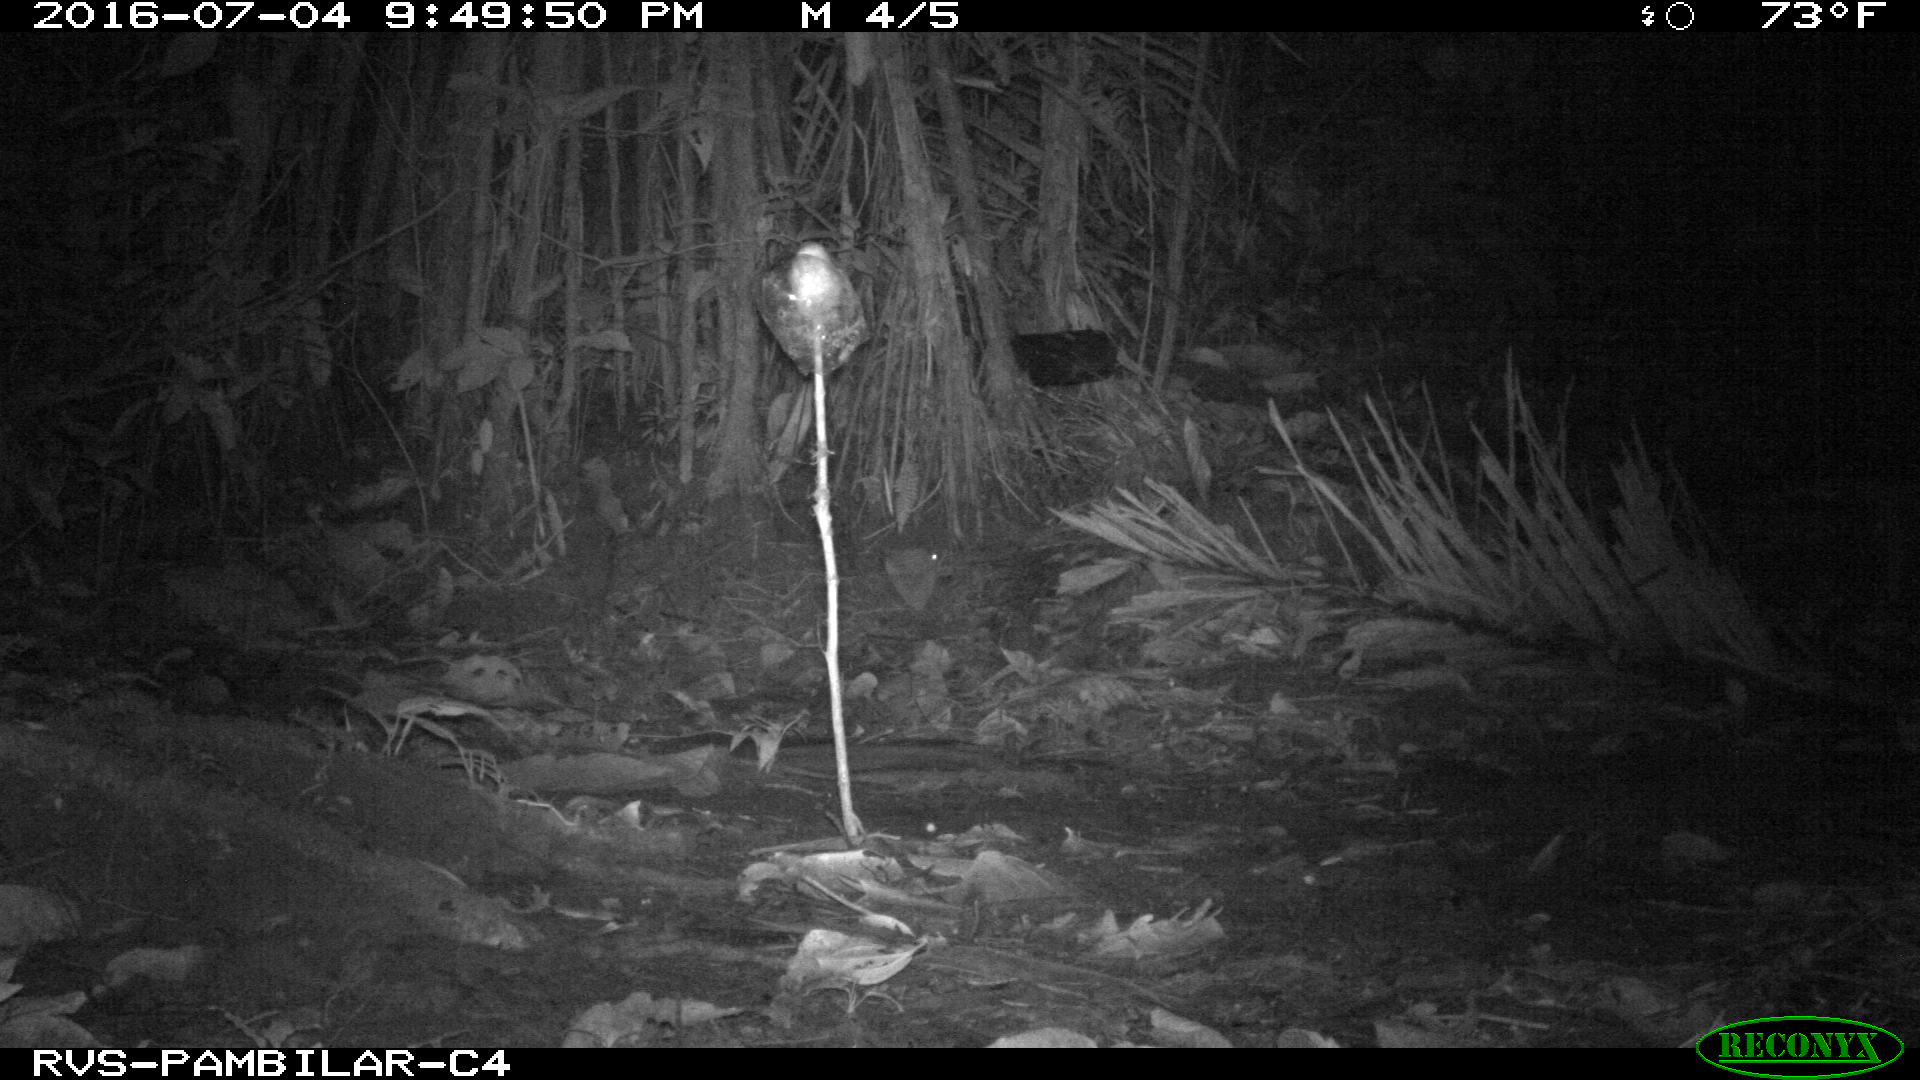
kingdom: Animalia
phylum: Chordata
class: Mammalia
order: Carnivora
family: Felidae
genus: Puma
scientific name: Puma concolor
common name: Puma
